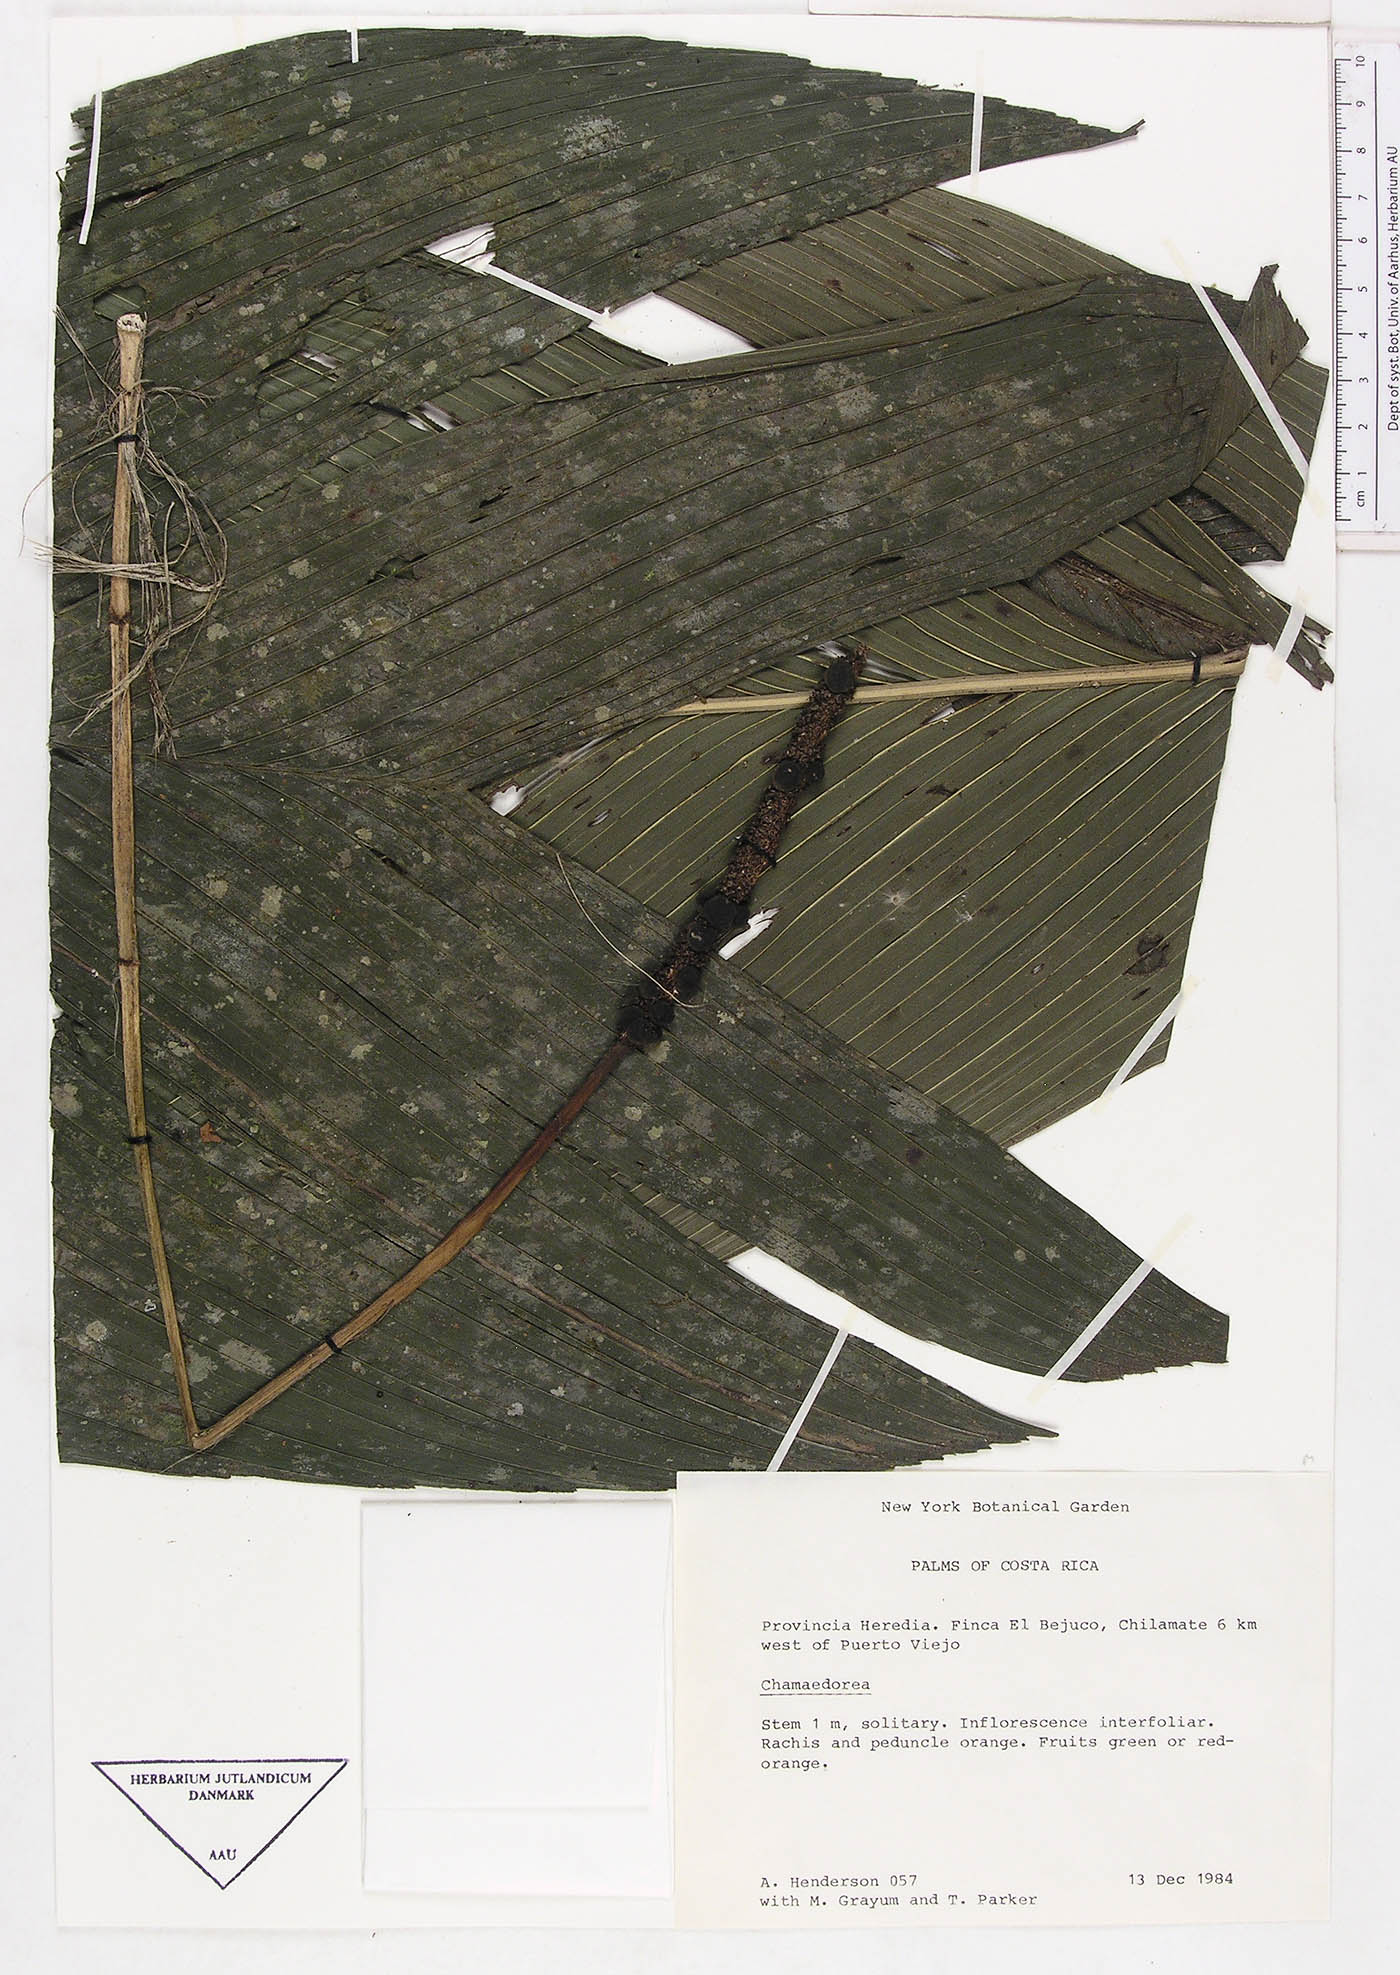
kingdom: Plantae
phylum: Tracheophyta
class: Liliopsida
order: Arecales
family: Arecaceae
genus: Chamaedorea
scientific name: Chamaedorea
